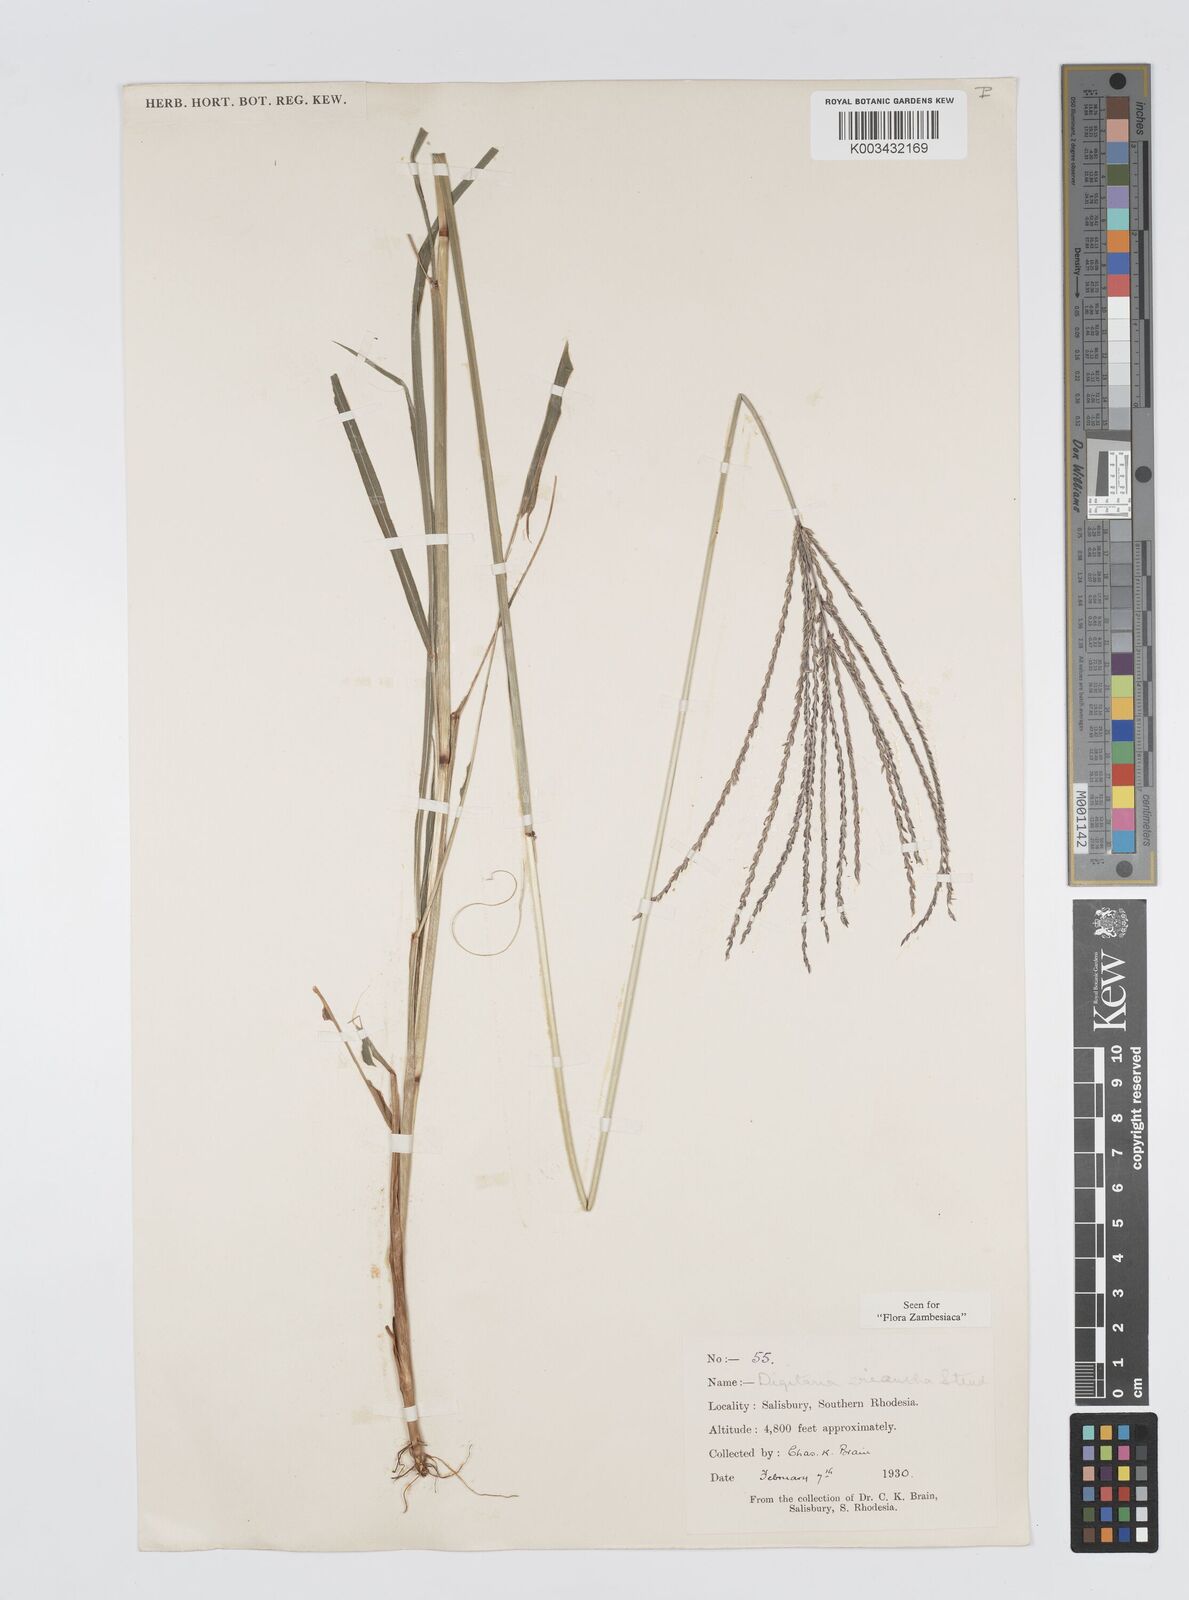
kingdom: Plantae
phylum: Tracheophyta
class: Liliopsida
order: Poales
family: Poaceae
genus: Digitaria
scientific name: Digitaria milanjiana
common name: Madagascar crabgrass
